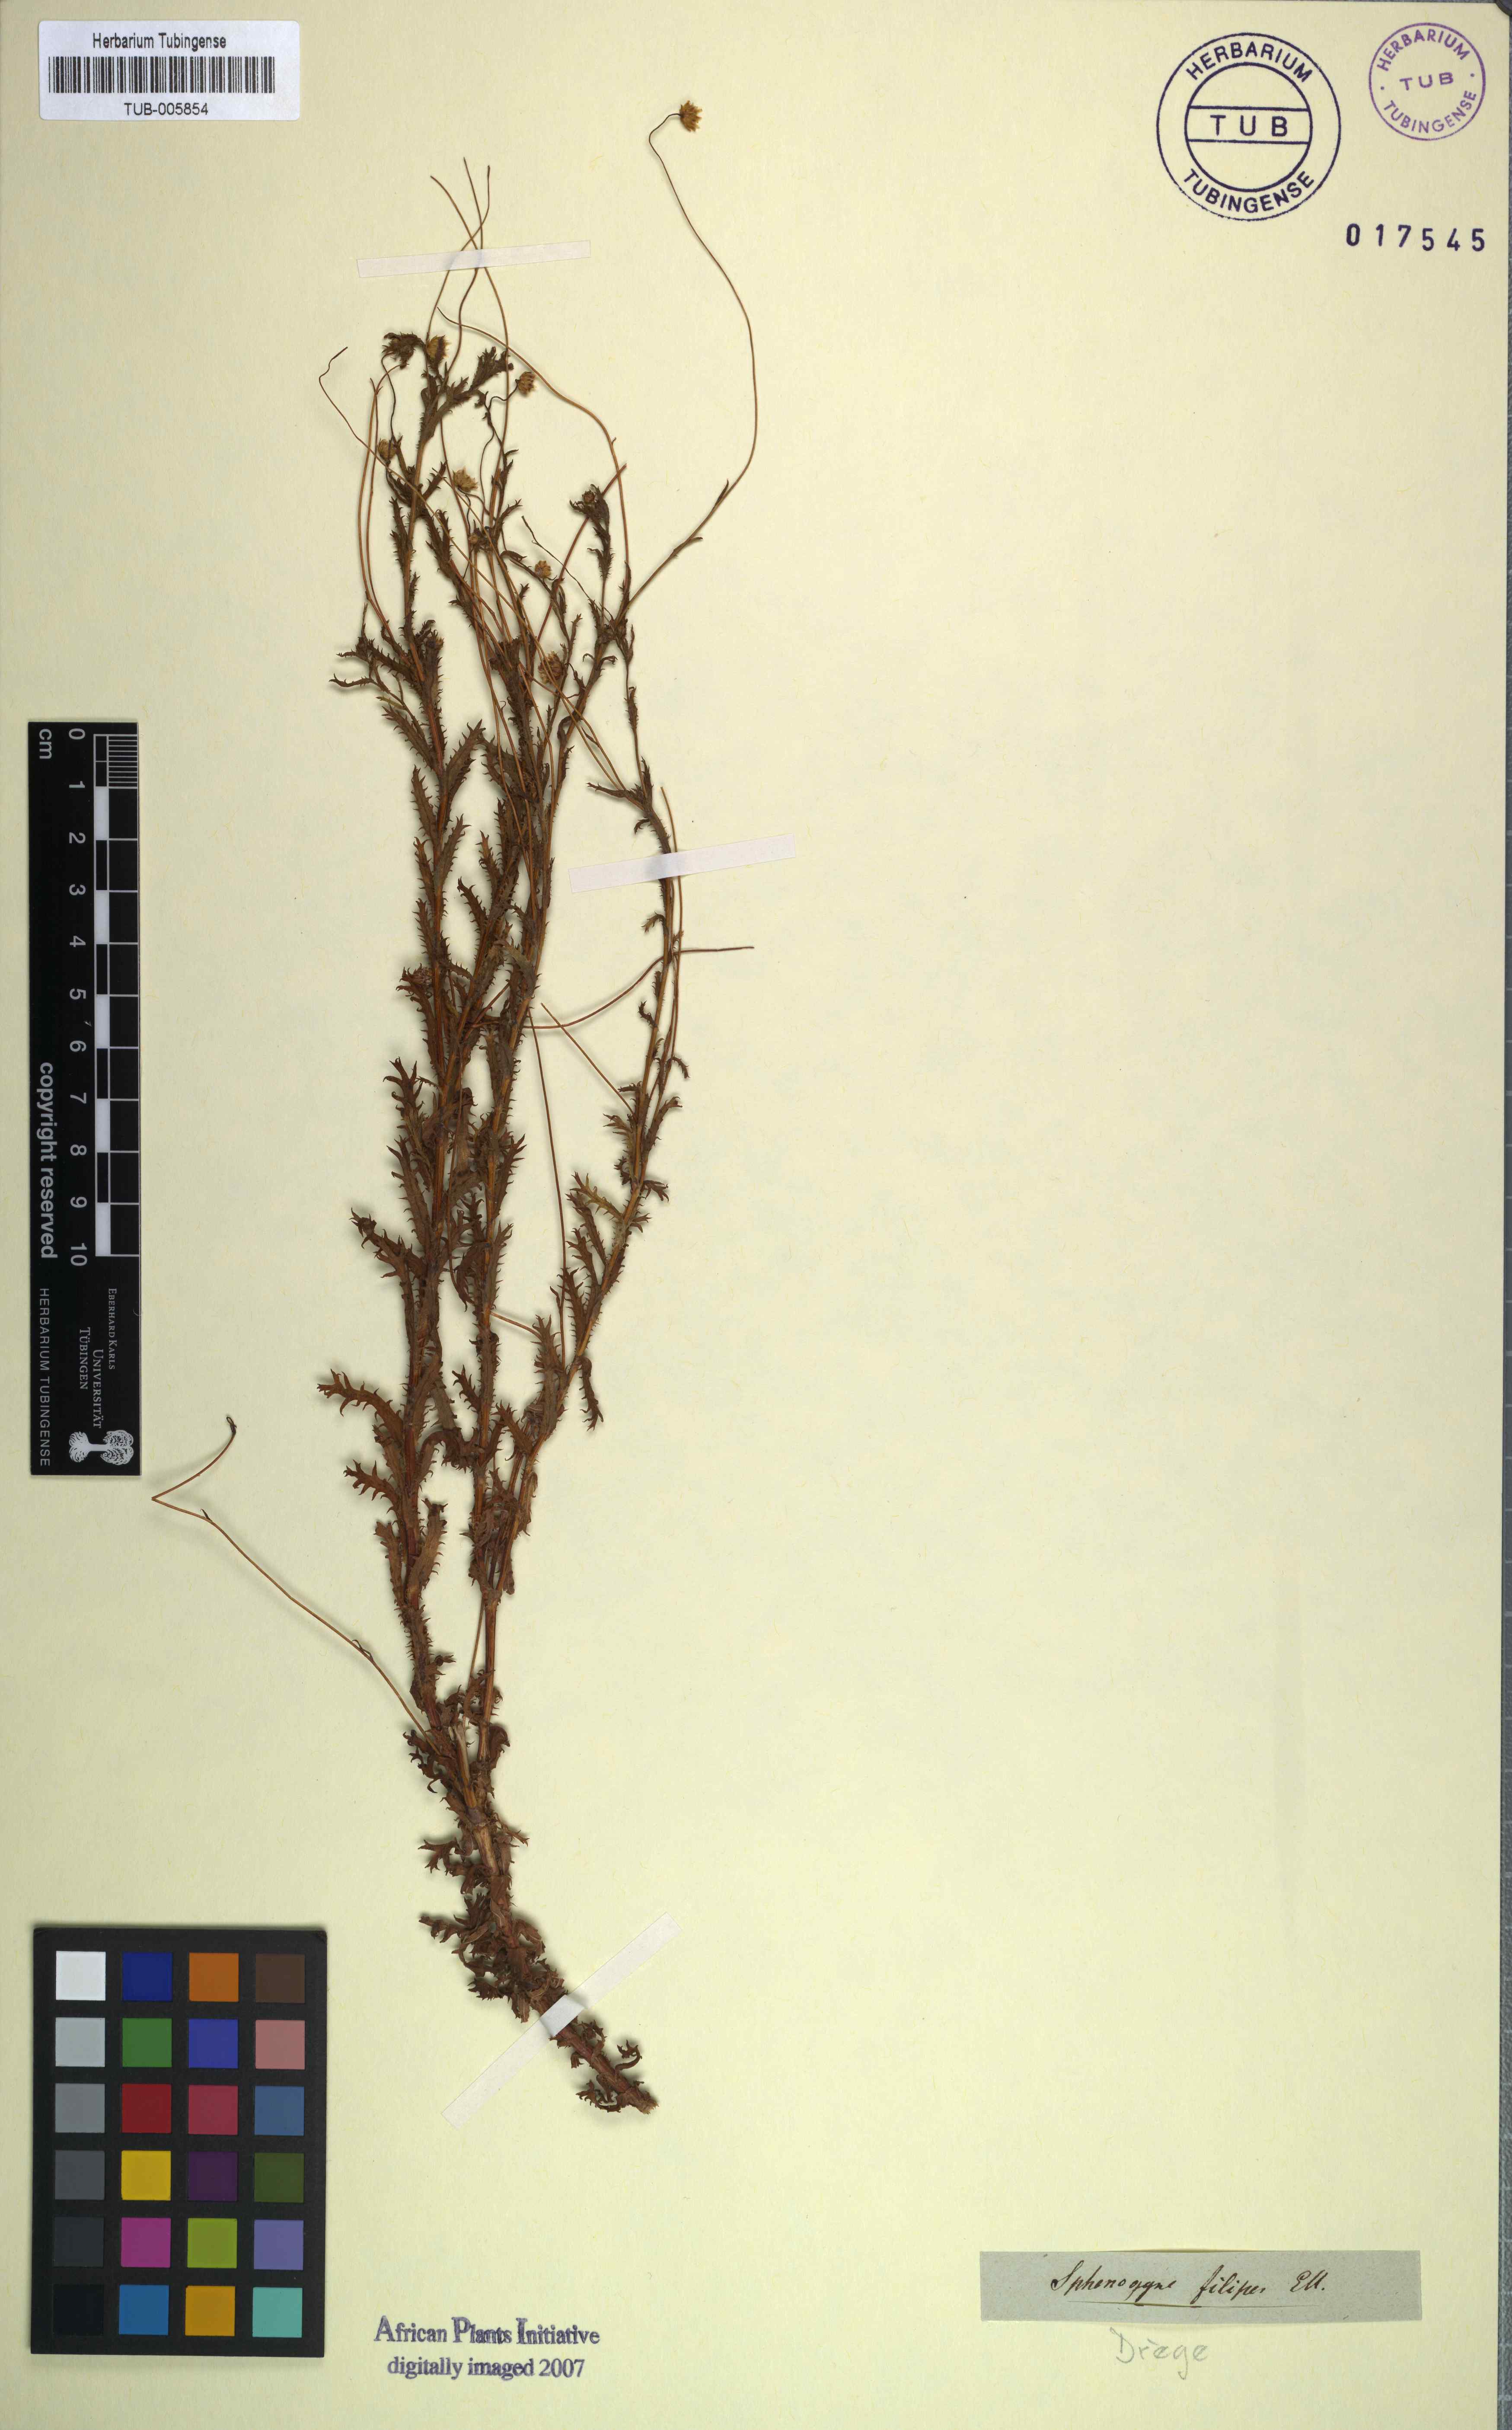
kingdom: Plantae
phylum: Tracheophyta
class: Magnoliopsida
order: Asterales
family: Asteraceae
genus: Ursinia
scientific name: Ursinia filipes
